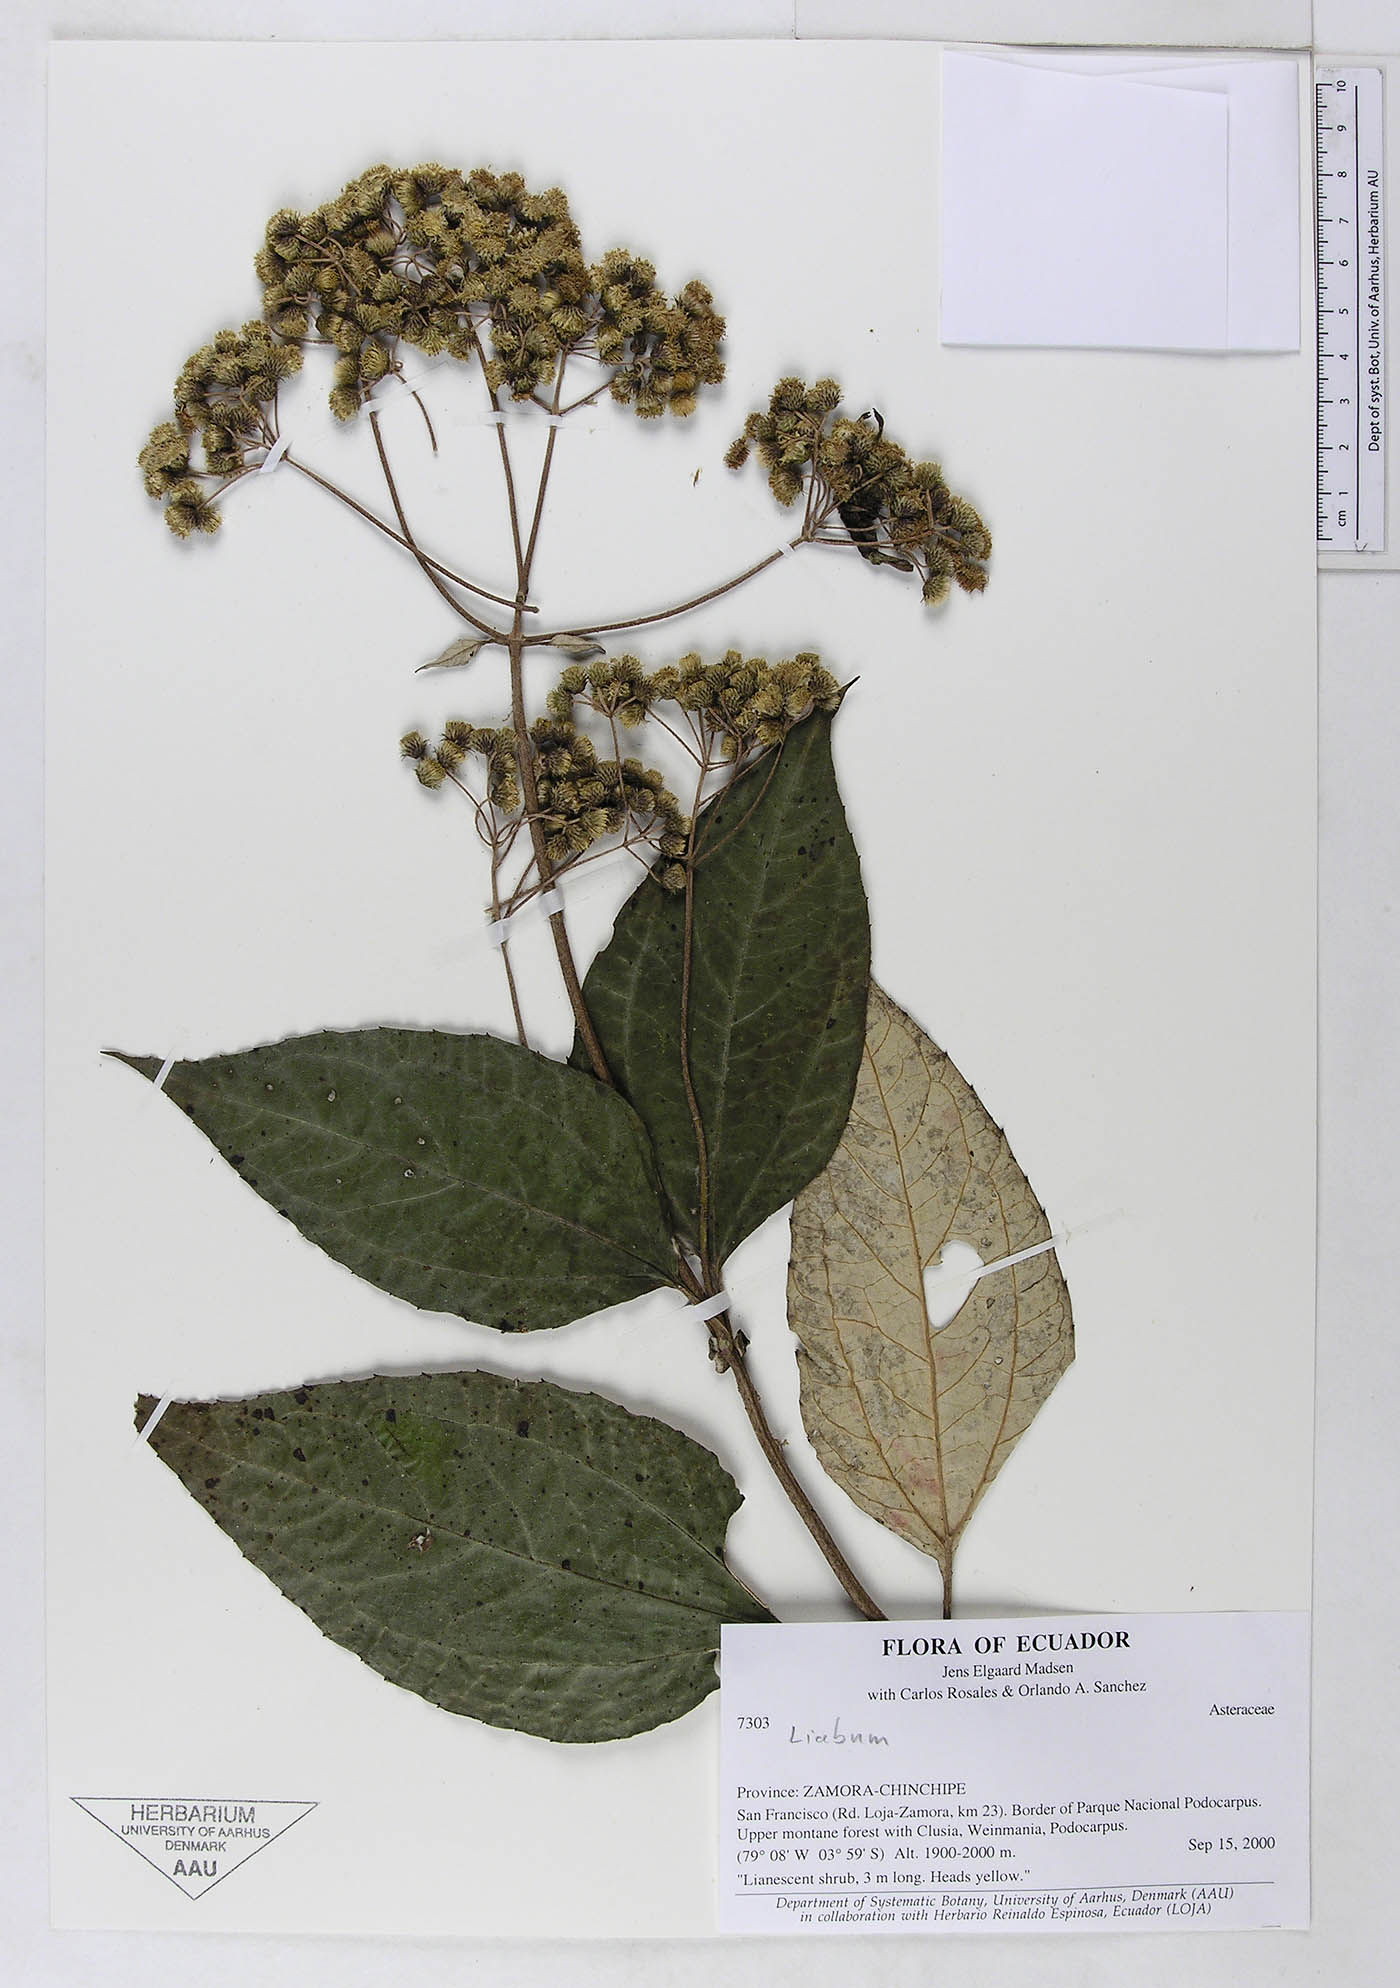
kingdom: Plantae
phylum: Tracheophyta
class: Magnoliopsida
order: Asterales
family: Asteraceae
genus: Liabum
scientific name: Liabum
